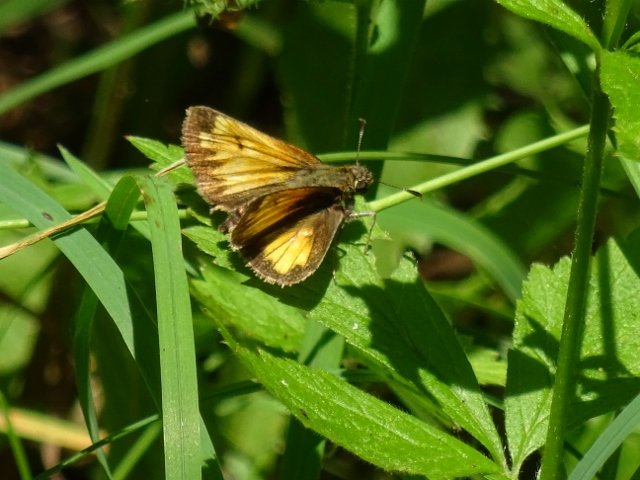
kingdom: Animalia
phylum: Arthropoda
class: Insecta
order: Lepidoptera
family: Hesperiidae
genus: Lon
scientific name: Lon hobomok
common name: Hobomok Skipper
